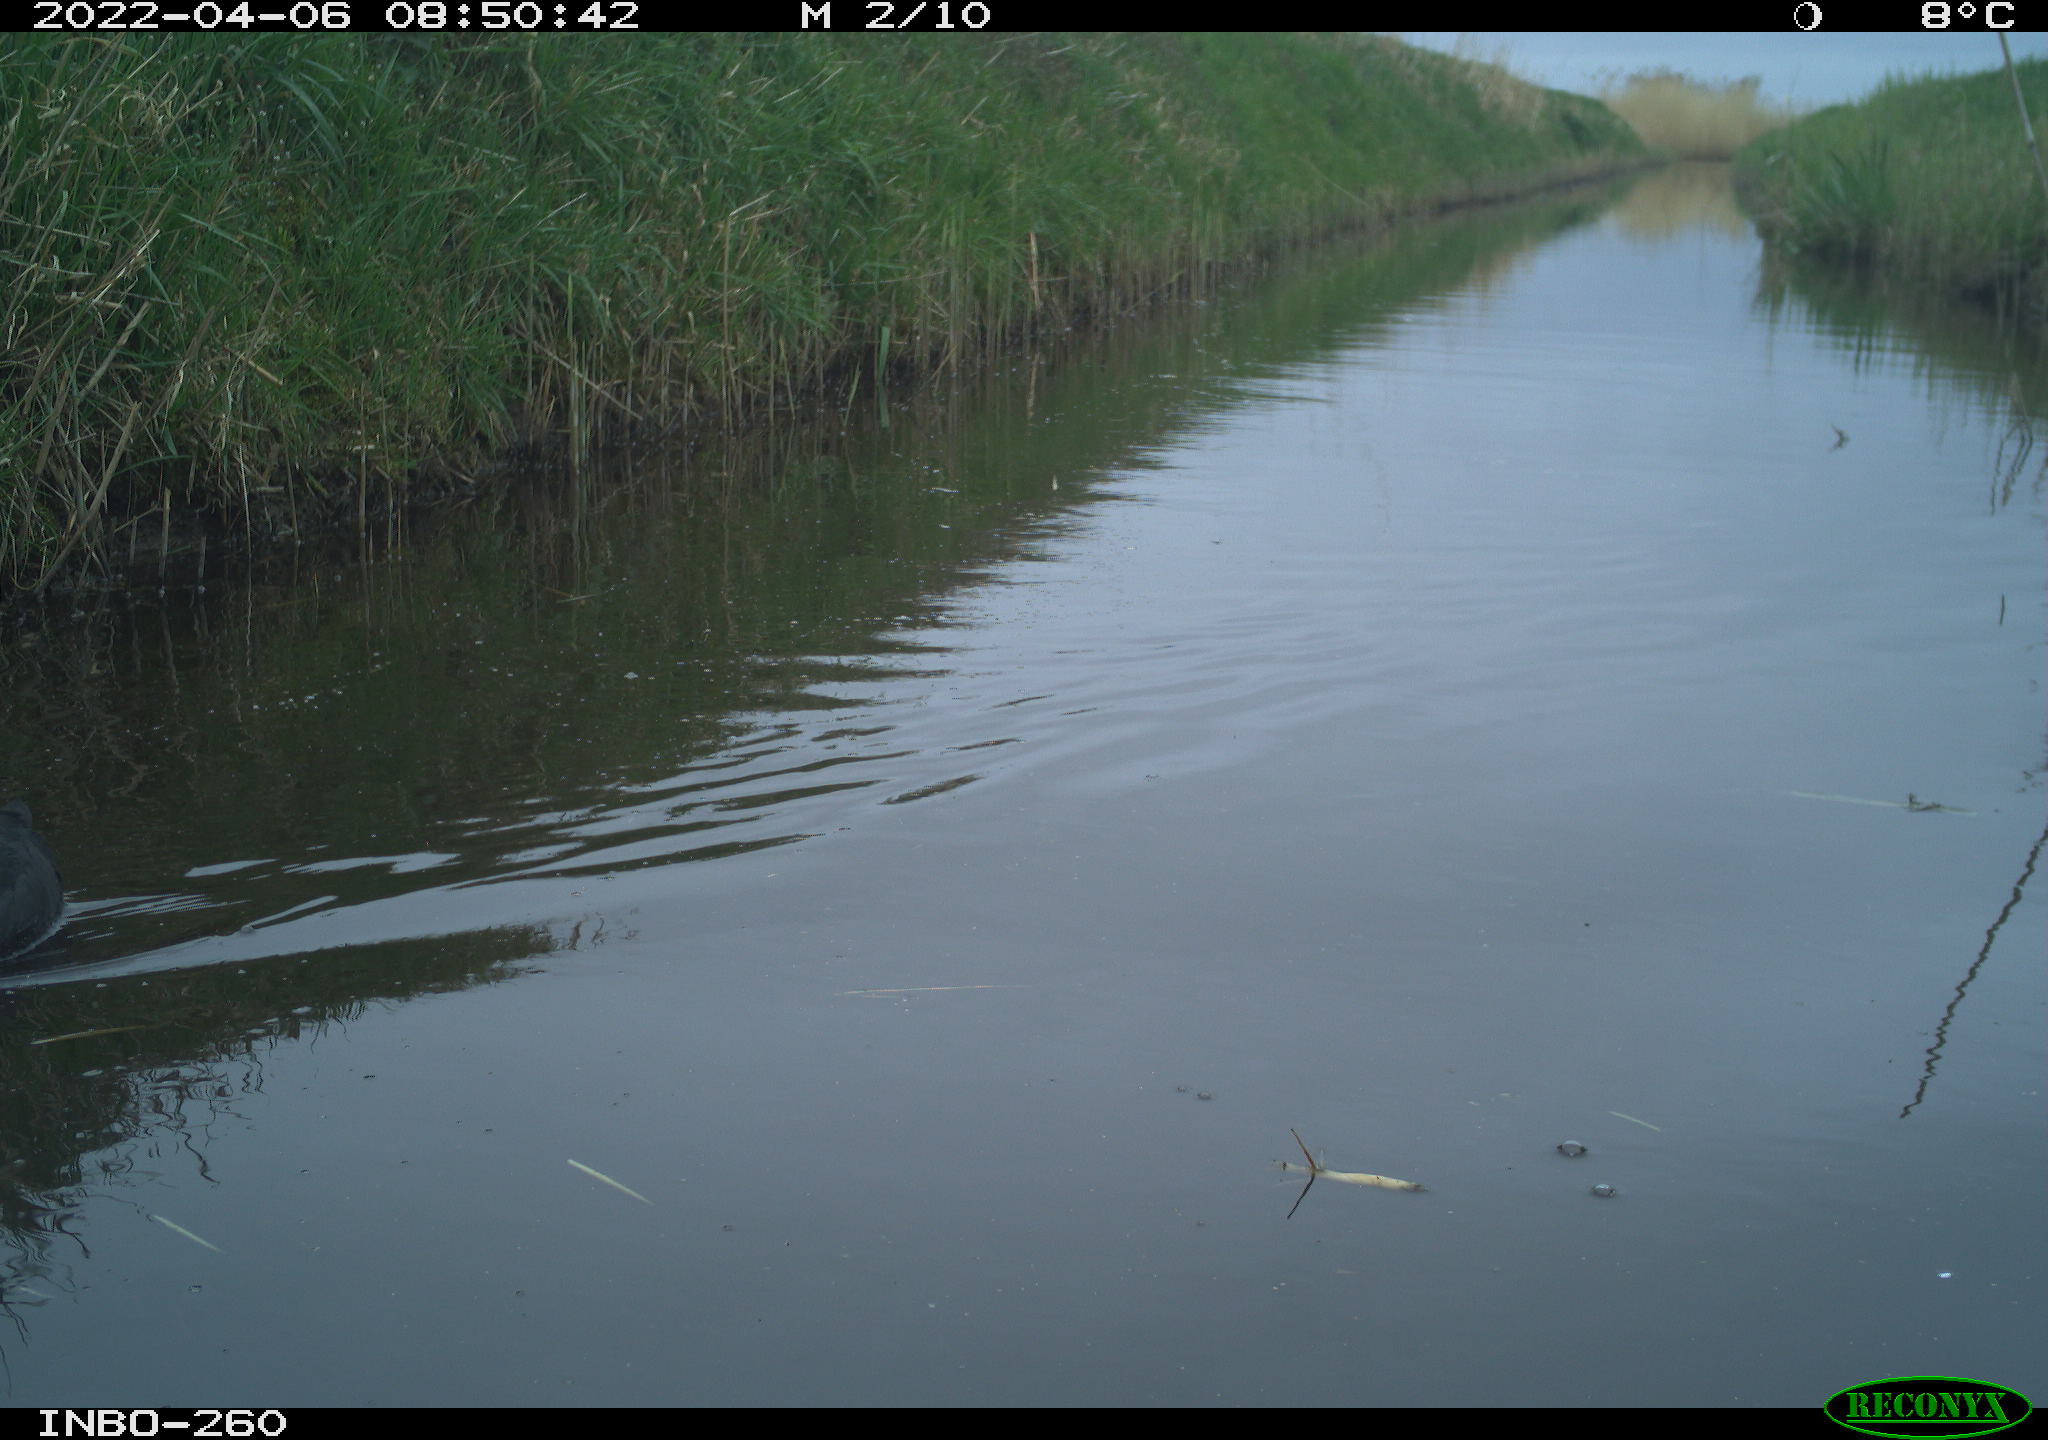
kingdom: Animalia
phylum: Chordata
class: Aves
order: Gruiformes
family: Rallidae
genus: Fulica
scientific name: Fulica atra
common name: Eurasian coot
